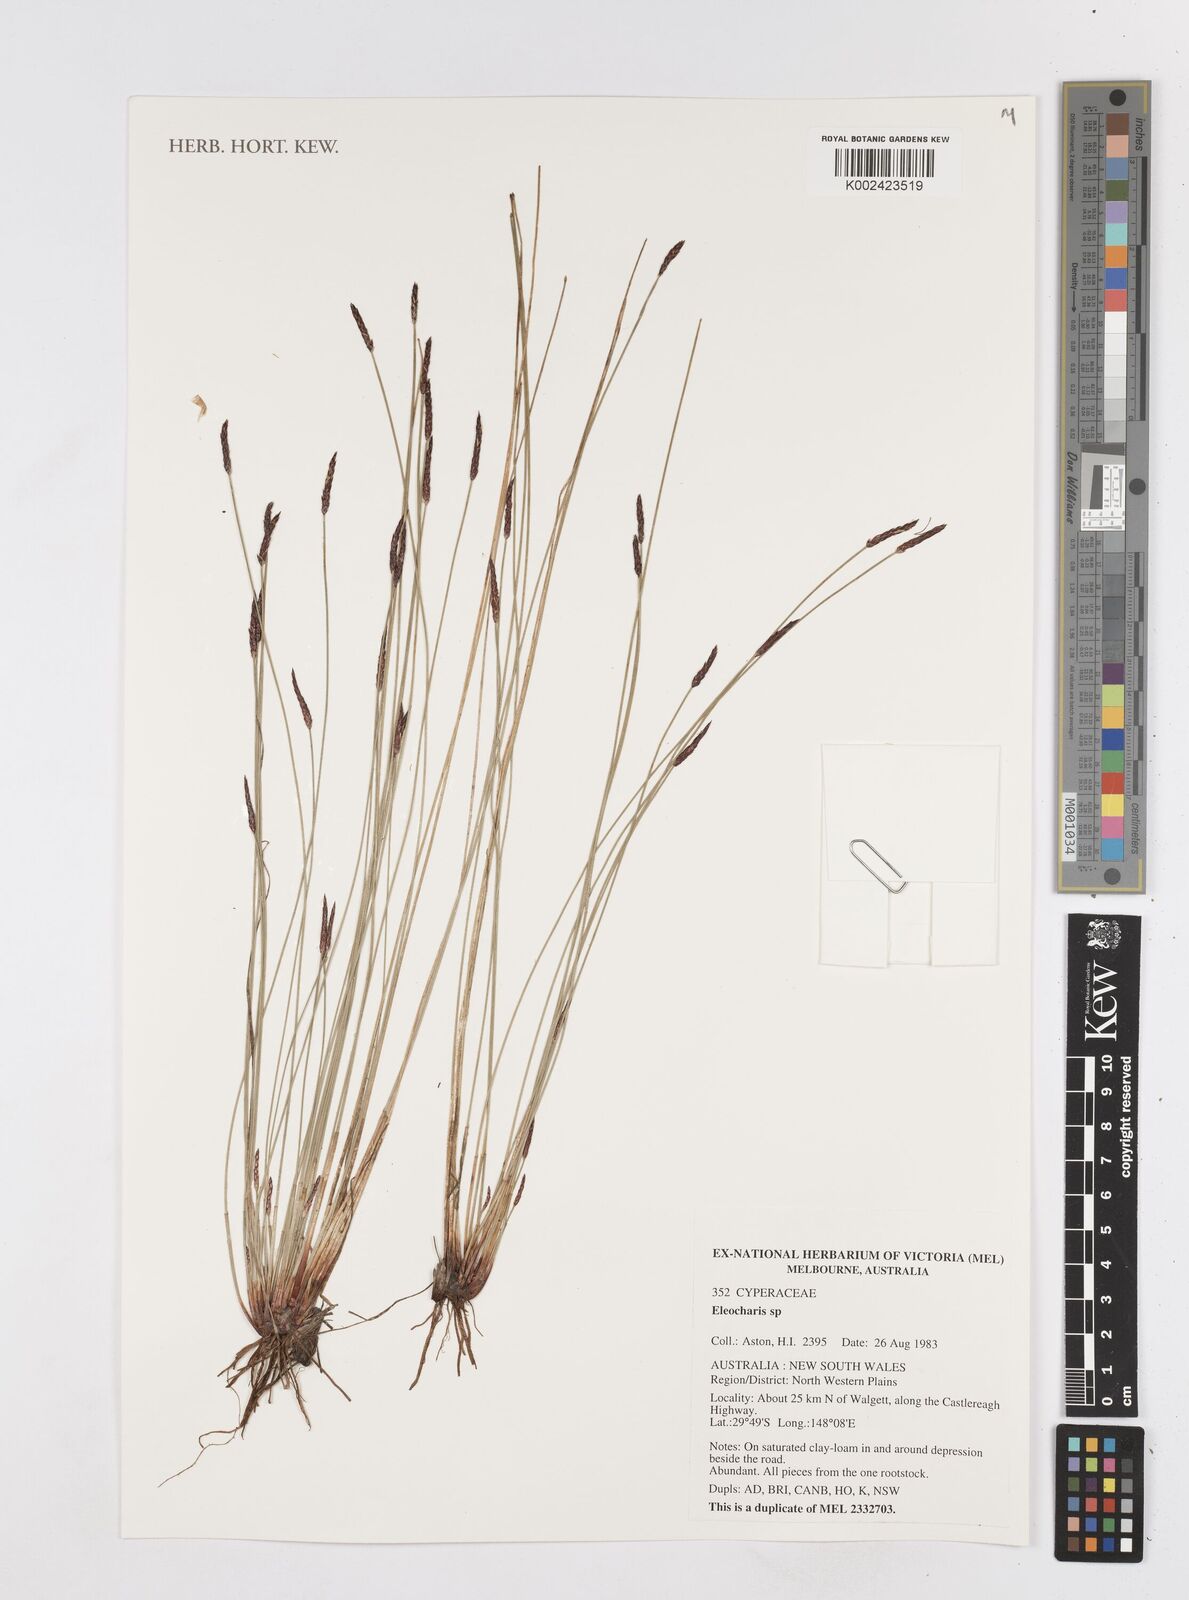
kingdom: Plantae
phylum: Tracheophyta
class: Liliopsida
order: Poales
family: Cyperaceae
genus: Eleocharis
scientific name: Eleocharis
